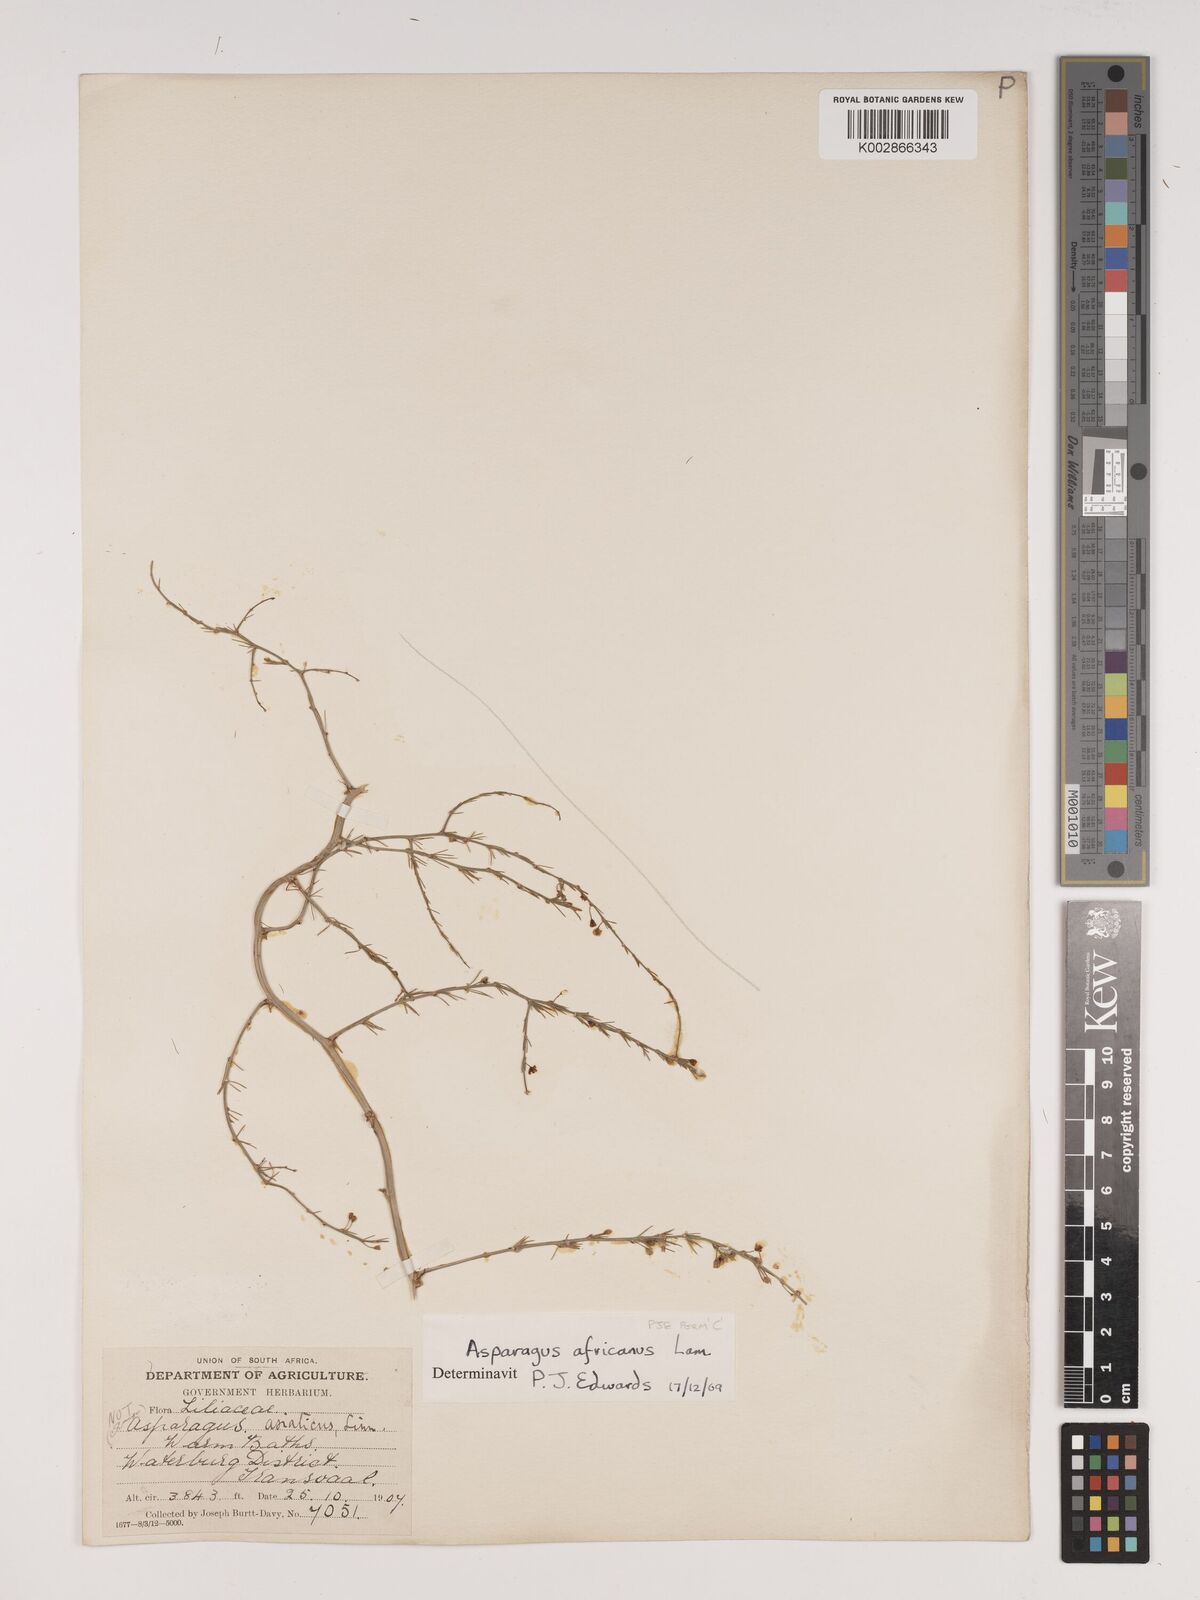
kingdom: Plantae
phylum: Tracheophyta
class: Liliopsida
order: Asparagales
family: Asparagaceae
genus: Asparagus
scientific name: Asparagus africanus
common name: Asparagus-fern
